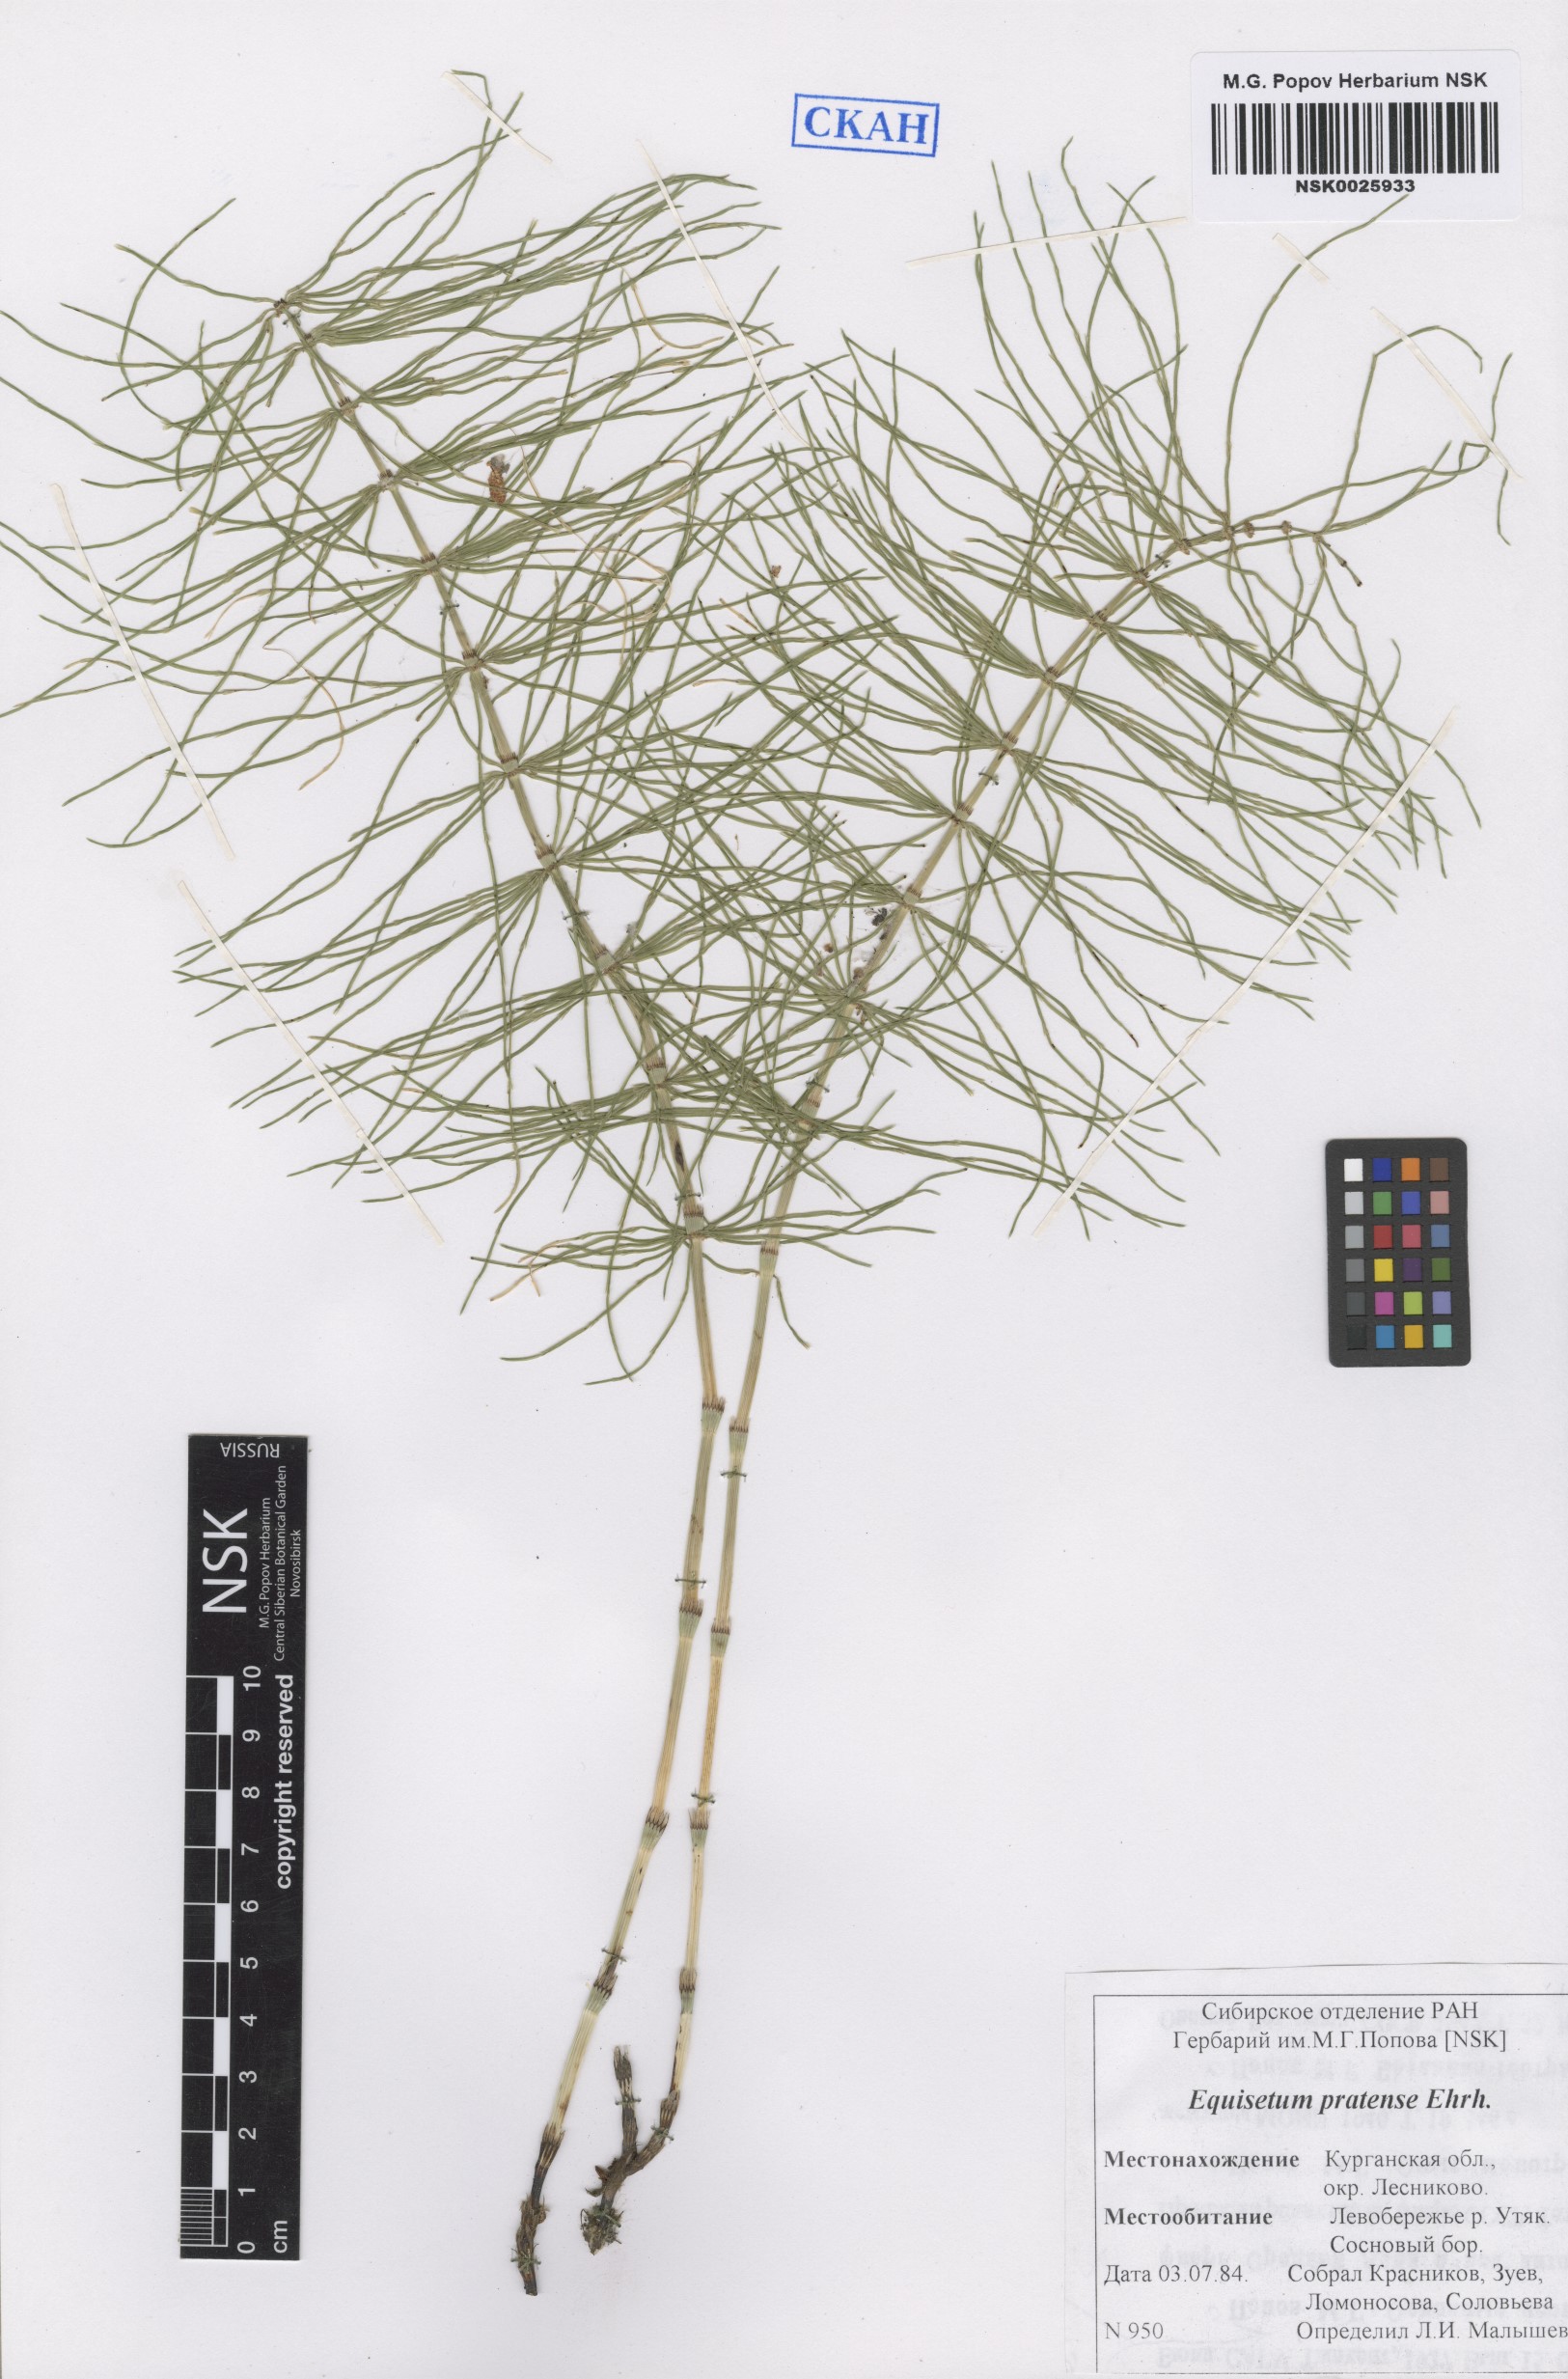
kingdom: Plantae
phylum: Tracheophyta
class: Polypodiopsida
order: Equisetales
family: Equisetaceae
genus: Equisetum
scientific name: Equisetum pratense
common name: Meadow horsetail
